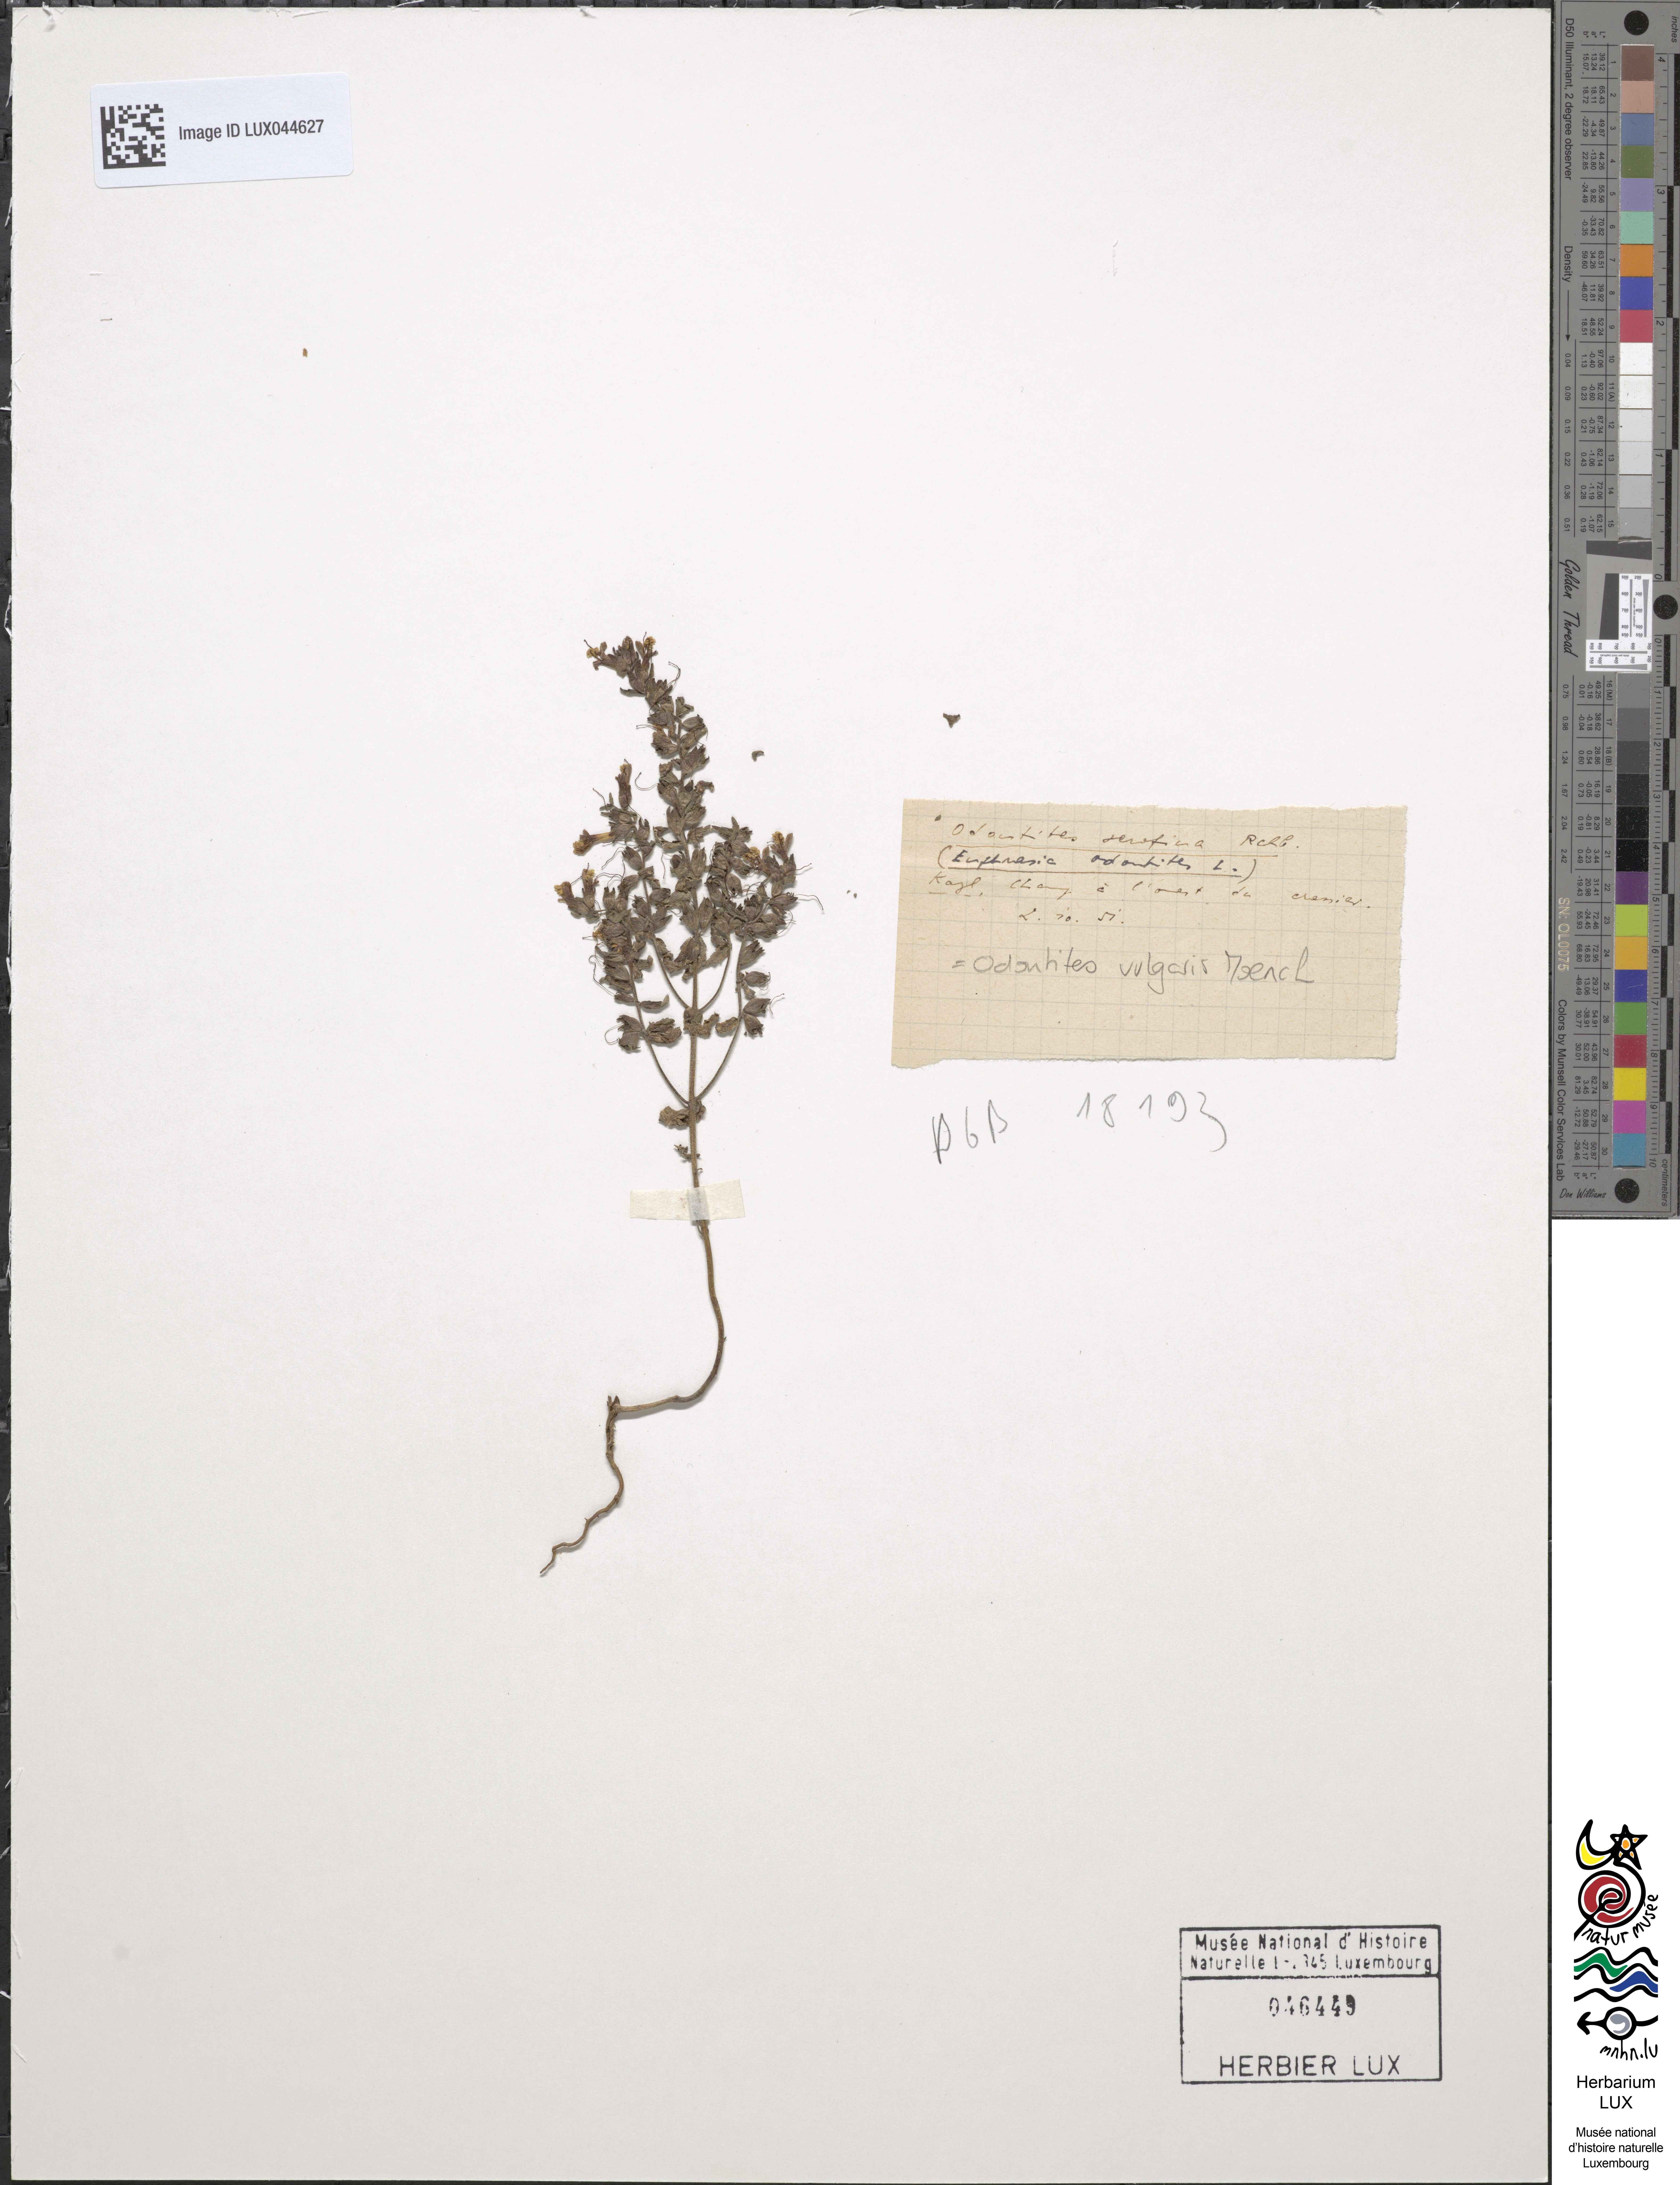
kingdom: Plantae
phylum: Tracheophyta
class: Magnoliopsida
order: Lamiales
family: Orobanchaceae
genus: Odontites
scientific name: Odontites vulgaris
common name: Broomrape
